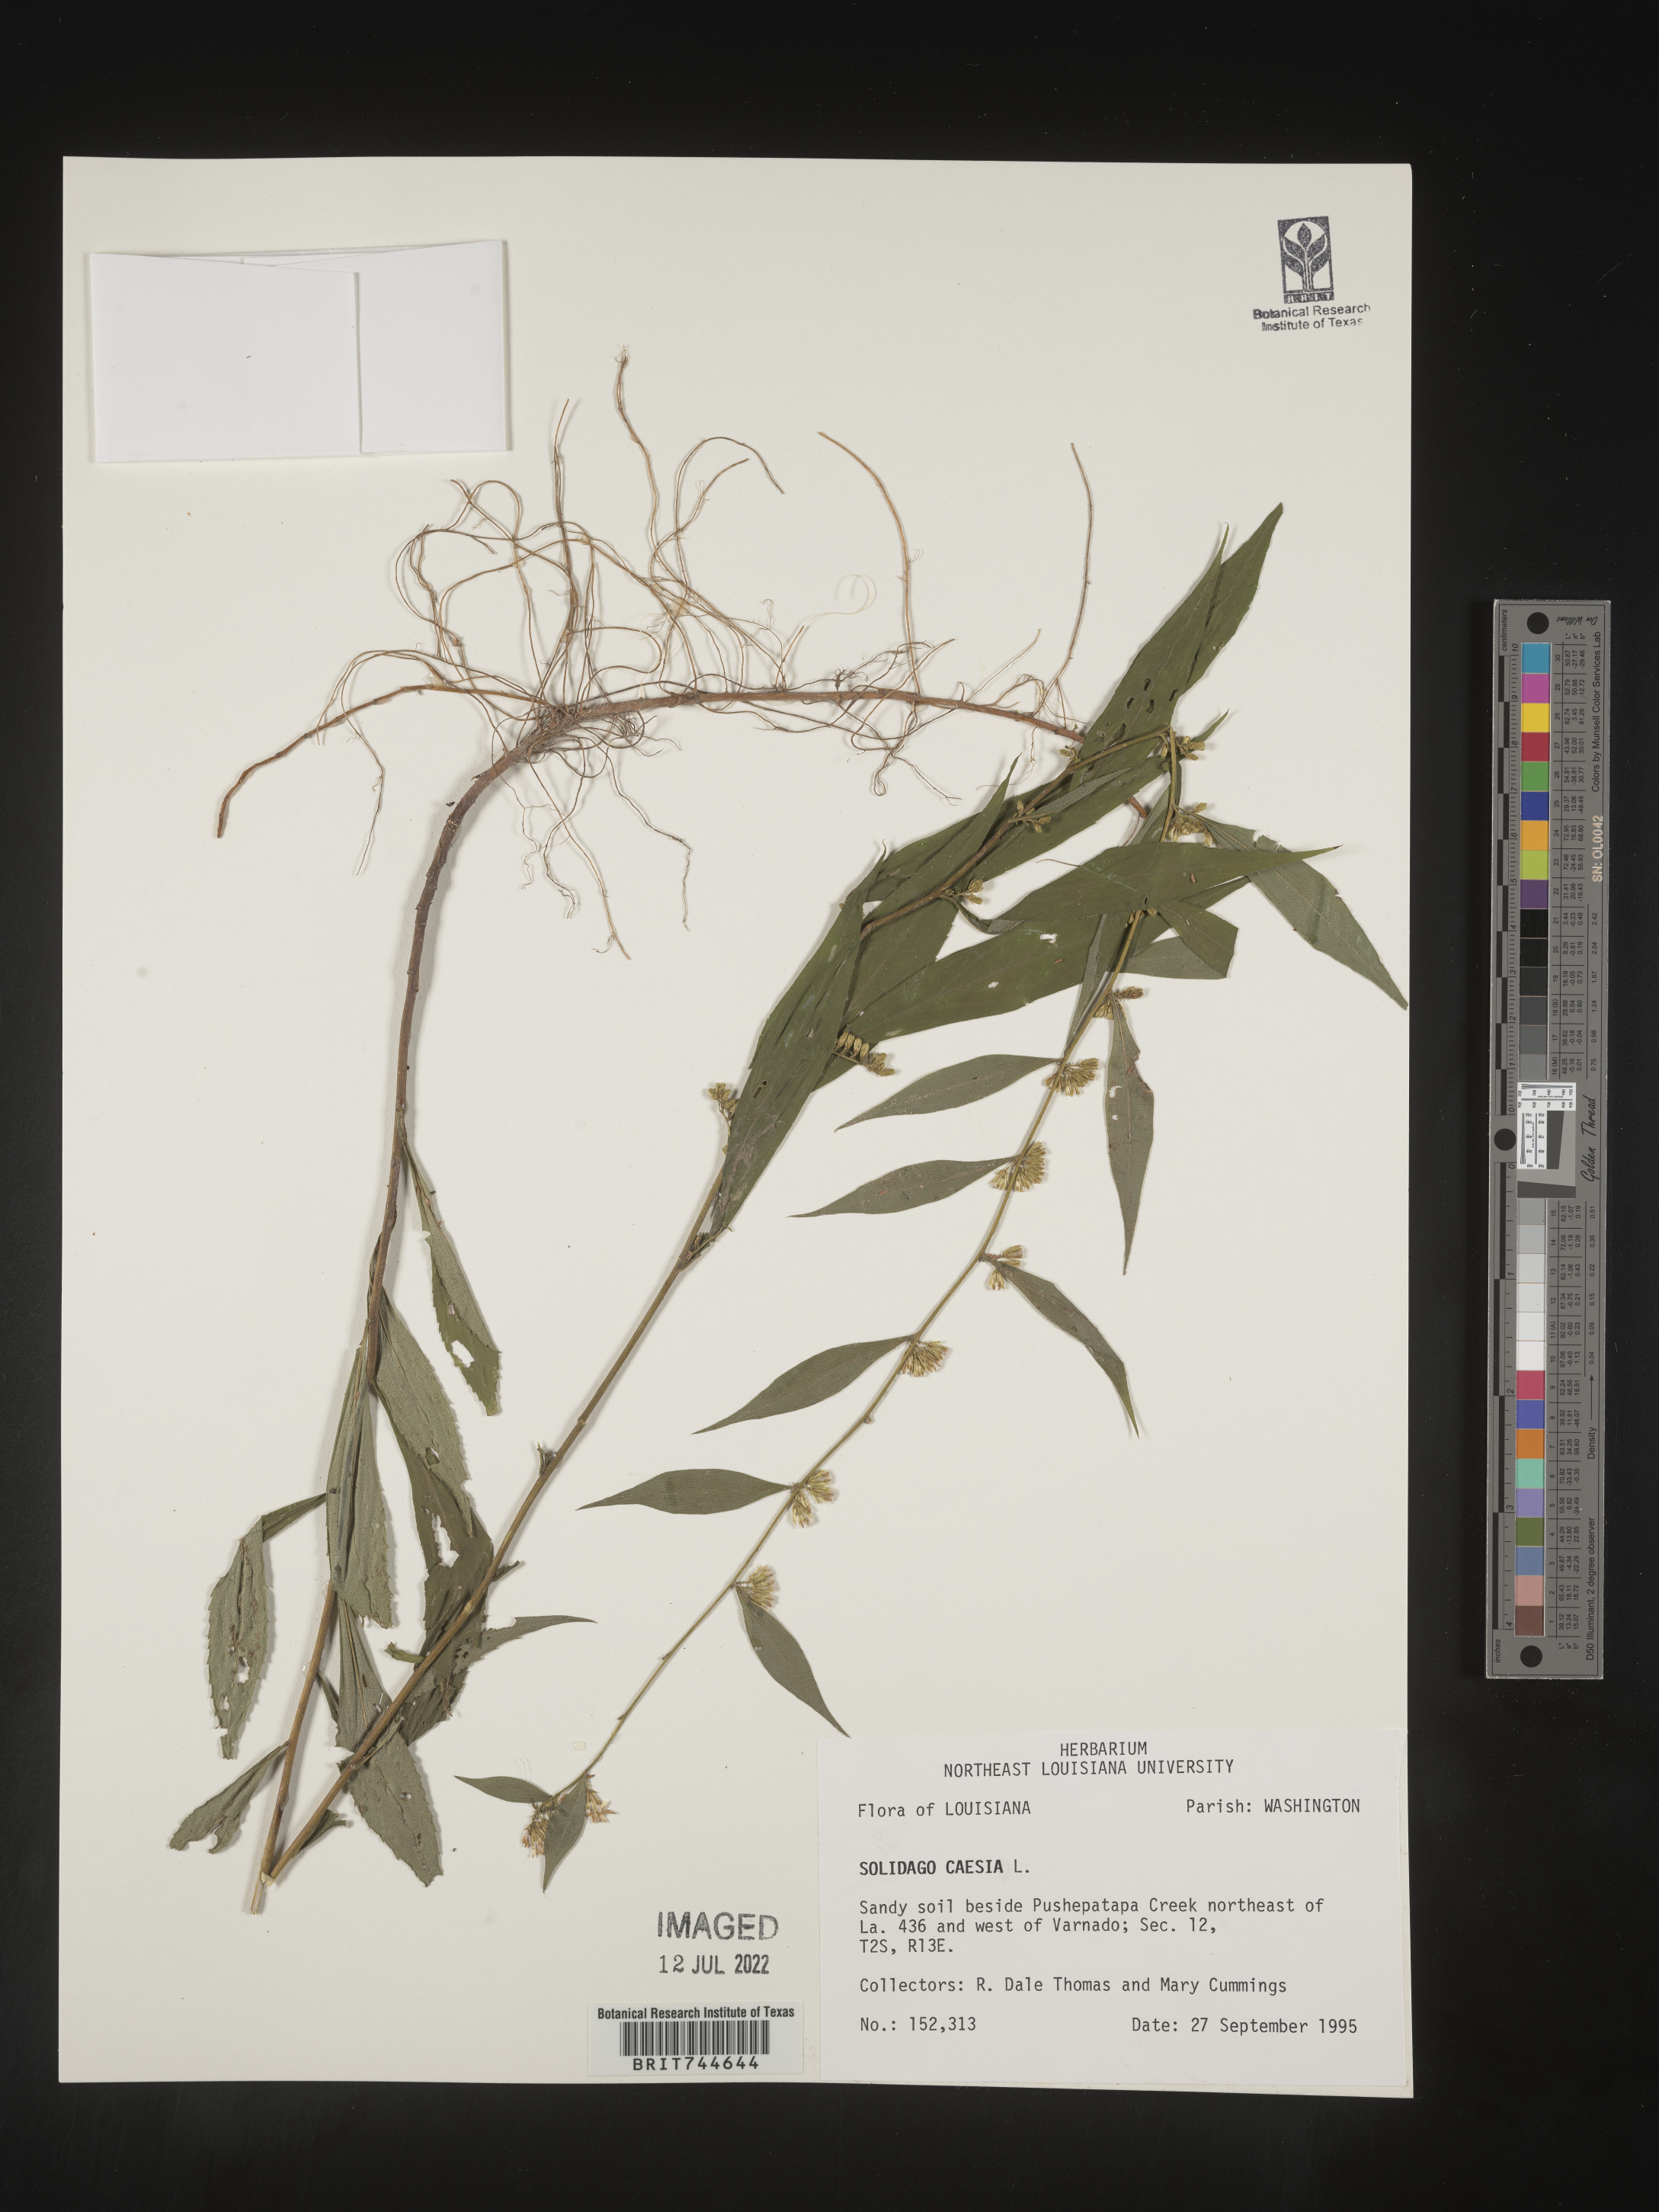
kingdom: Plantae
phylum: Tracheophyta
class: Magnoliopsida
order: Asterales
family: Asteraceae
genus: Solidago
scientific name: Solidago caesia
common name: Woodland goldenrod
